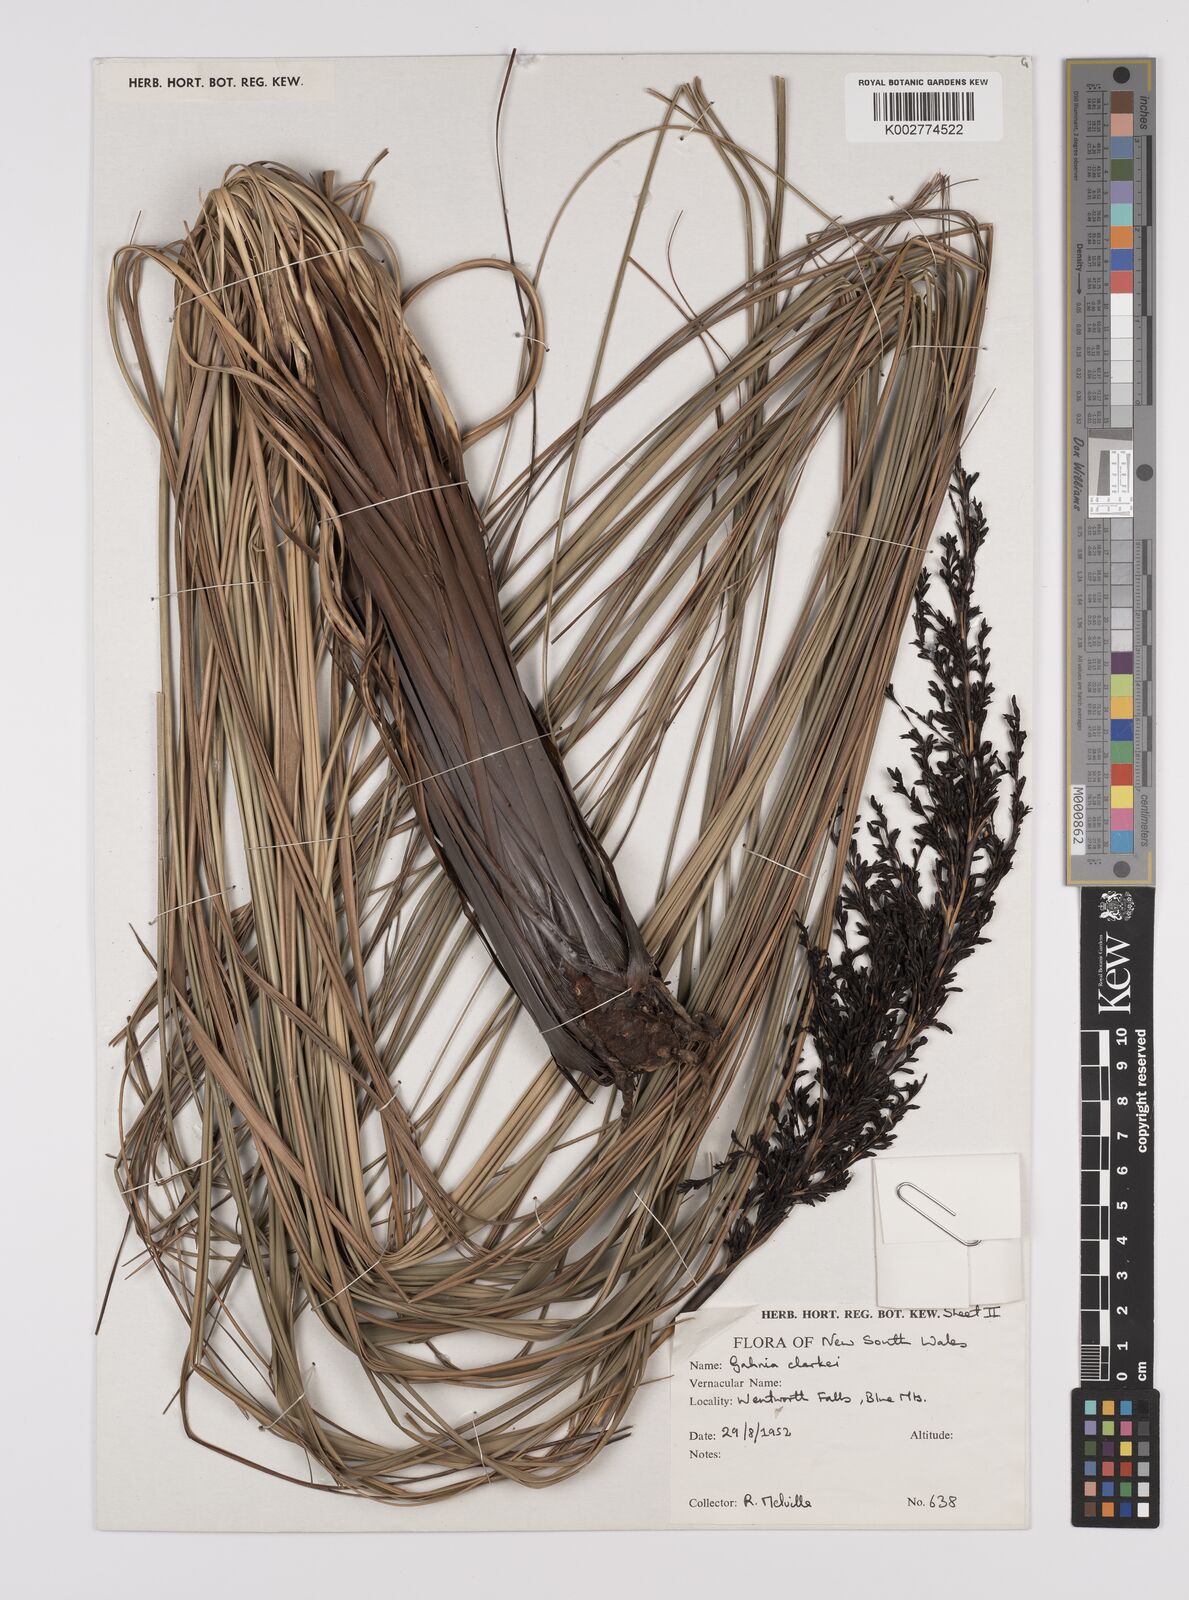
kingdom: Plantae
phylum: Tracheophyta
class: Liliopsida
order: Poales
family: Cyperaceae
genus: Gahnia
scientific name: Gahnia clarkei
